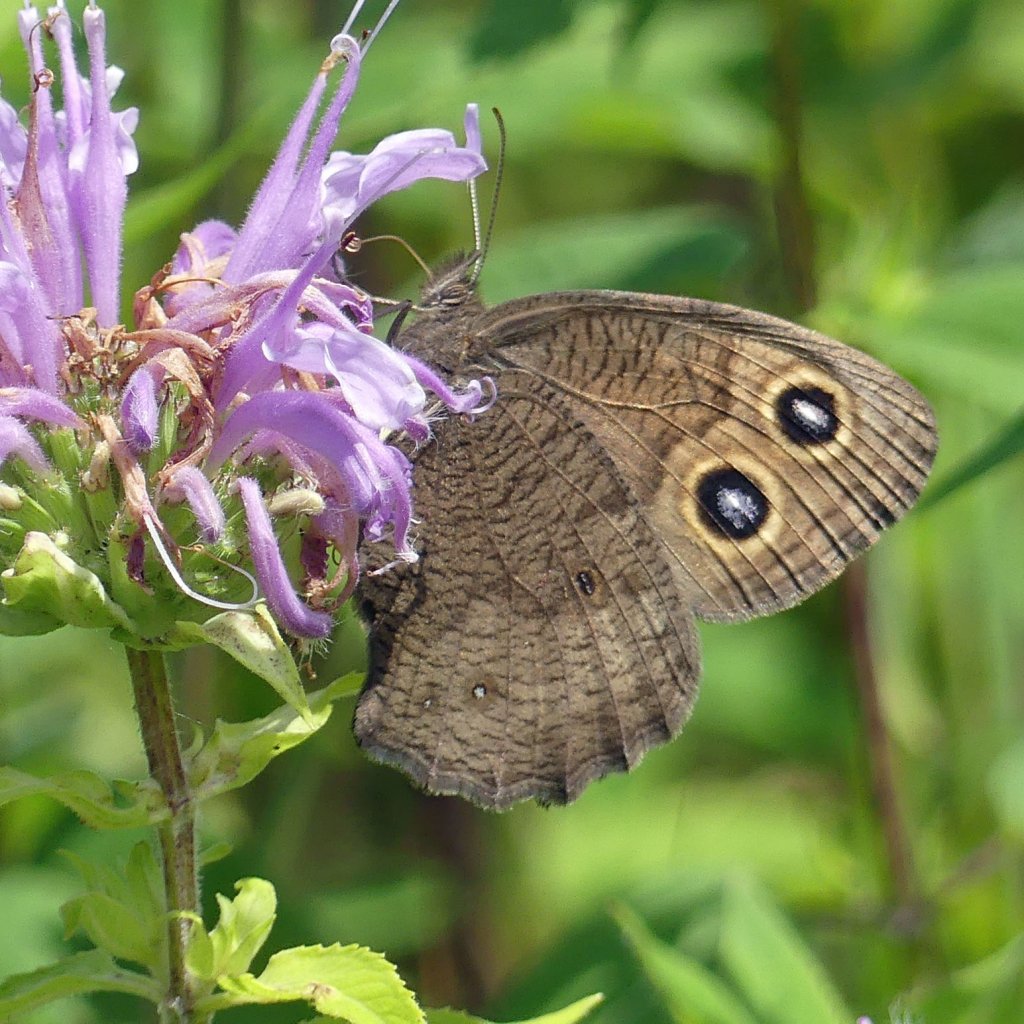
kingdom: Animalia
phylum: Arthropoda
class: Insecta
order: Lepidoptera
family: Nymphalidae
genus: Cercyonis
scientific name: Cercyonis pegala
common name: Common Wood-Nymph
